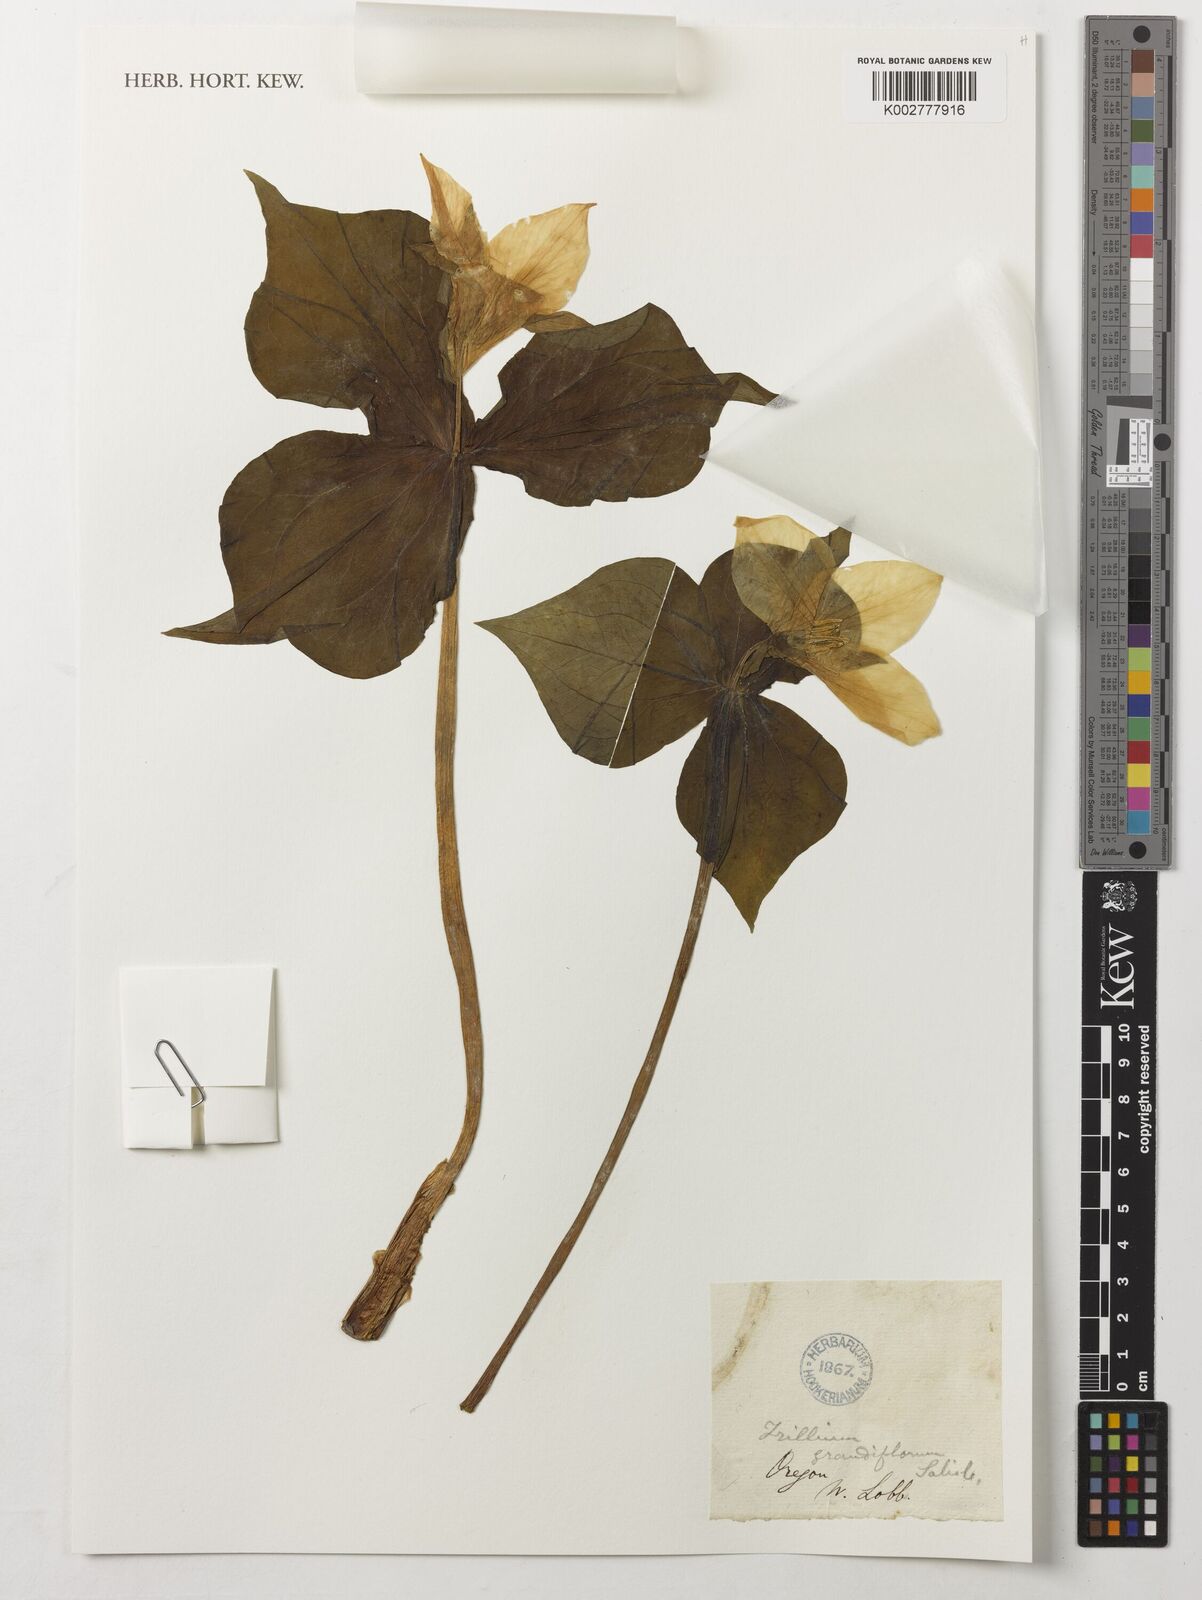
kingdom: Plantae
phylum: Tracheophyta
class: Liliopsida
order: Liliales
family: Melanthiaceae
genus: Trillium
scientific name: Trillium grandiflorum
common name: Great white trillium
